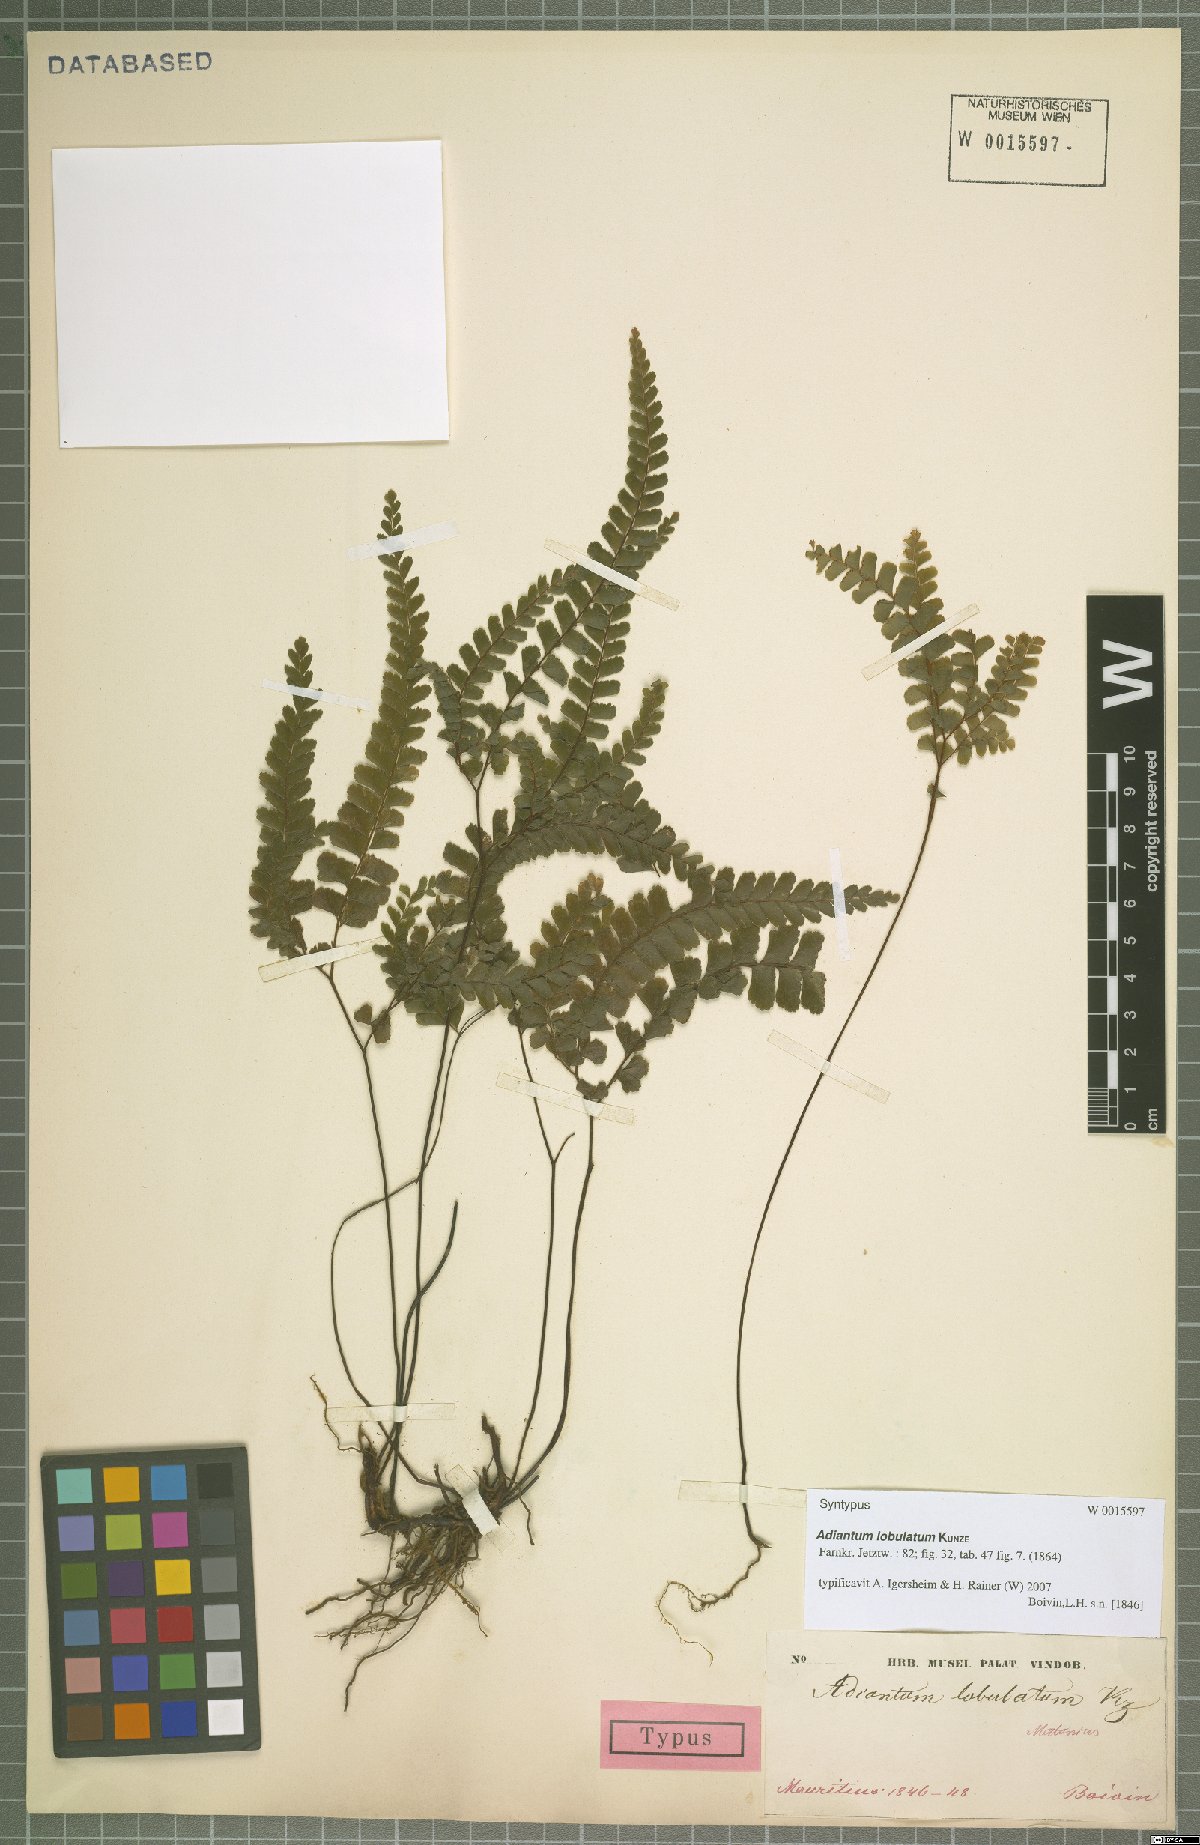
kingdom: Plantae
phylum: Tracheophyta
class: Polypodiopsida
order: Polypodiales
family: Pteridaceae
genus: Adiantum
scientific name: Adiantum hispidulum
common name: Rough maidenhair
